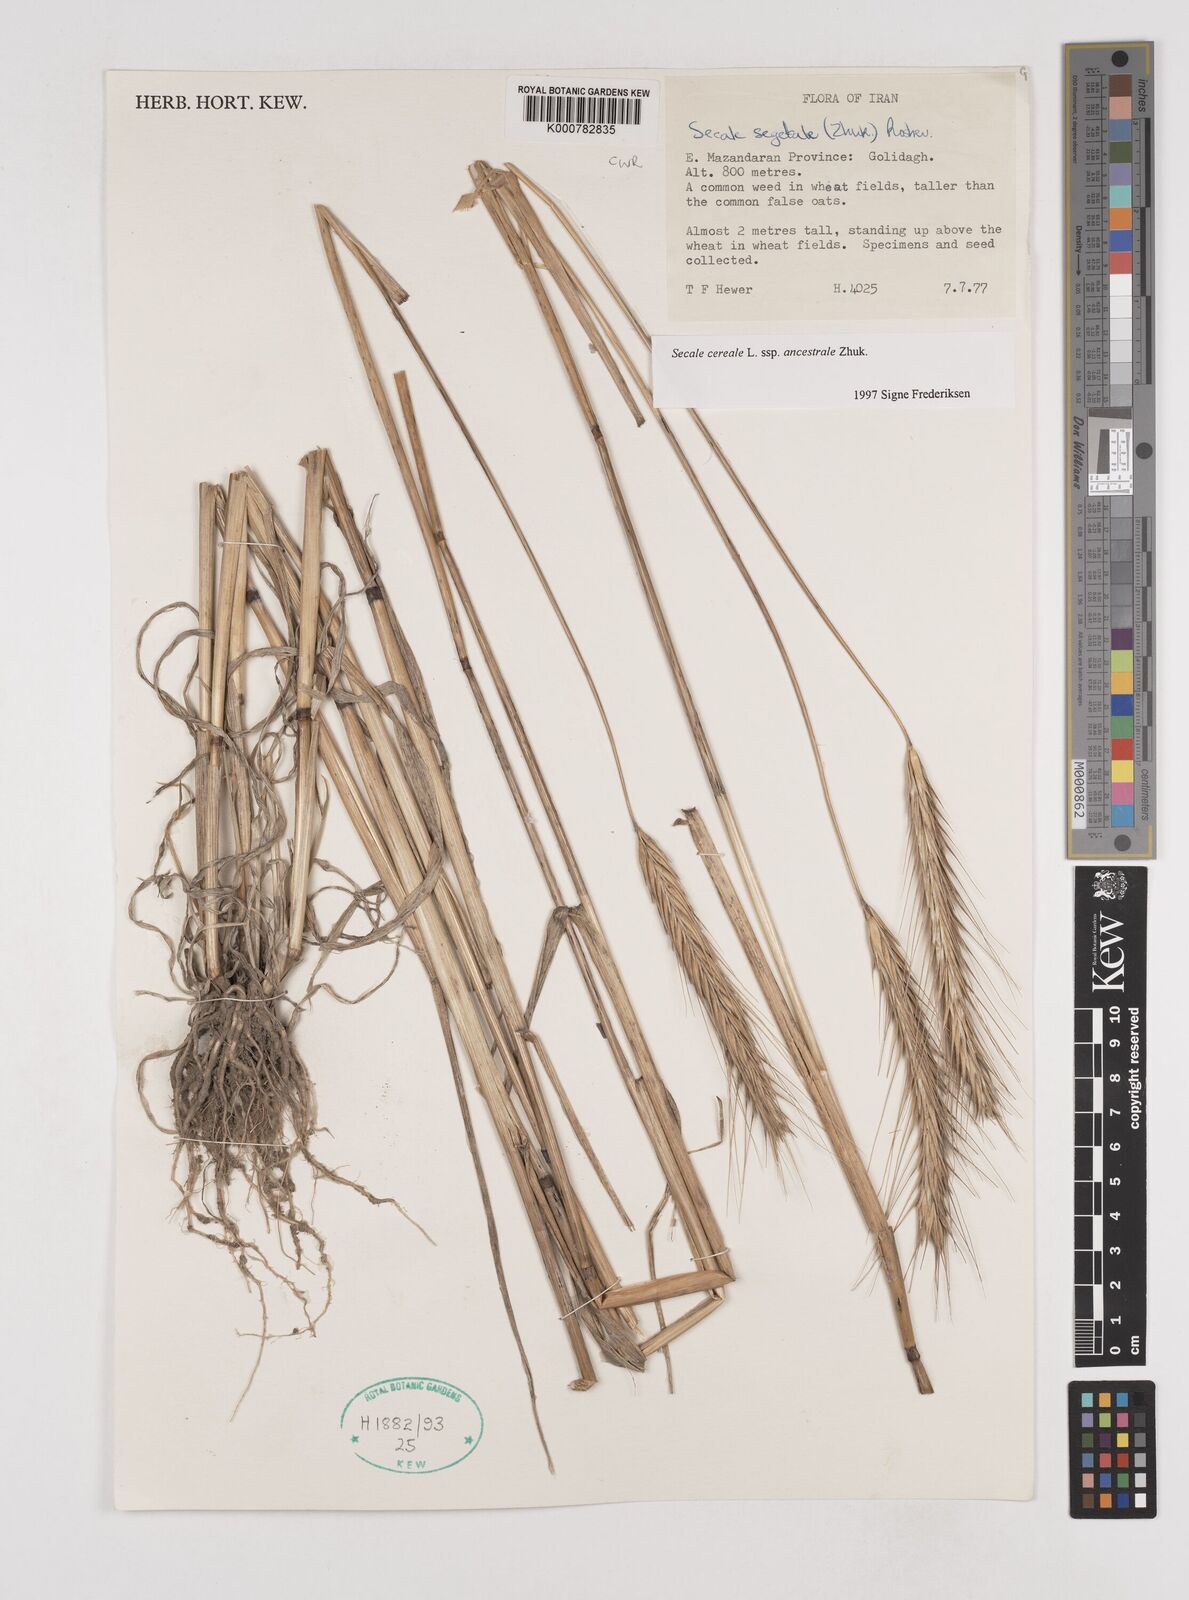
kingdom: Plantae
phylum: Tracheophyta
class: Liliopsida
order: Poales
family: Poaceae
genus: Secale
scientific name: Secale cereale
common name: Rye
